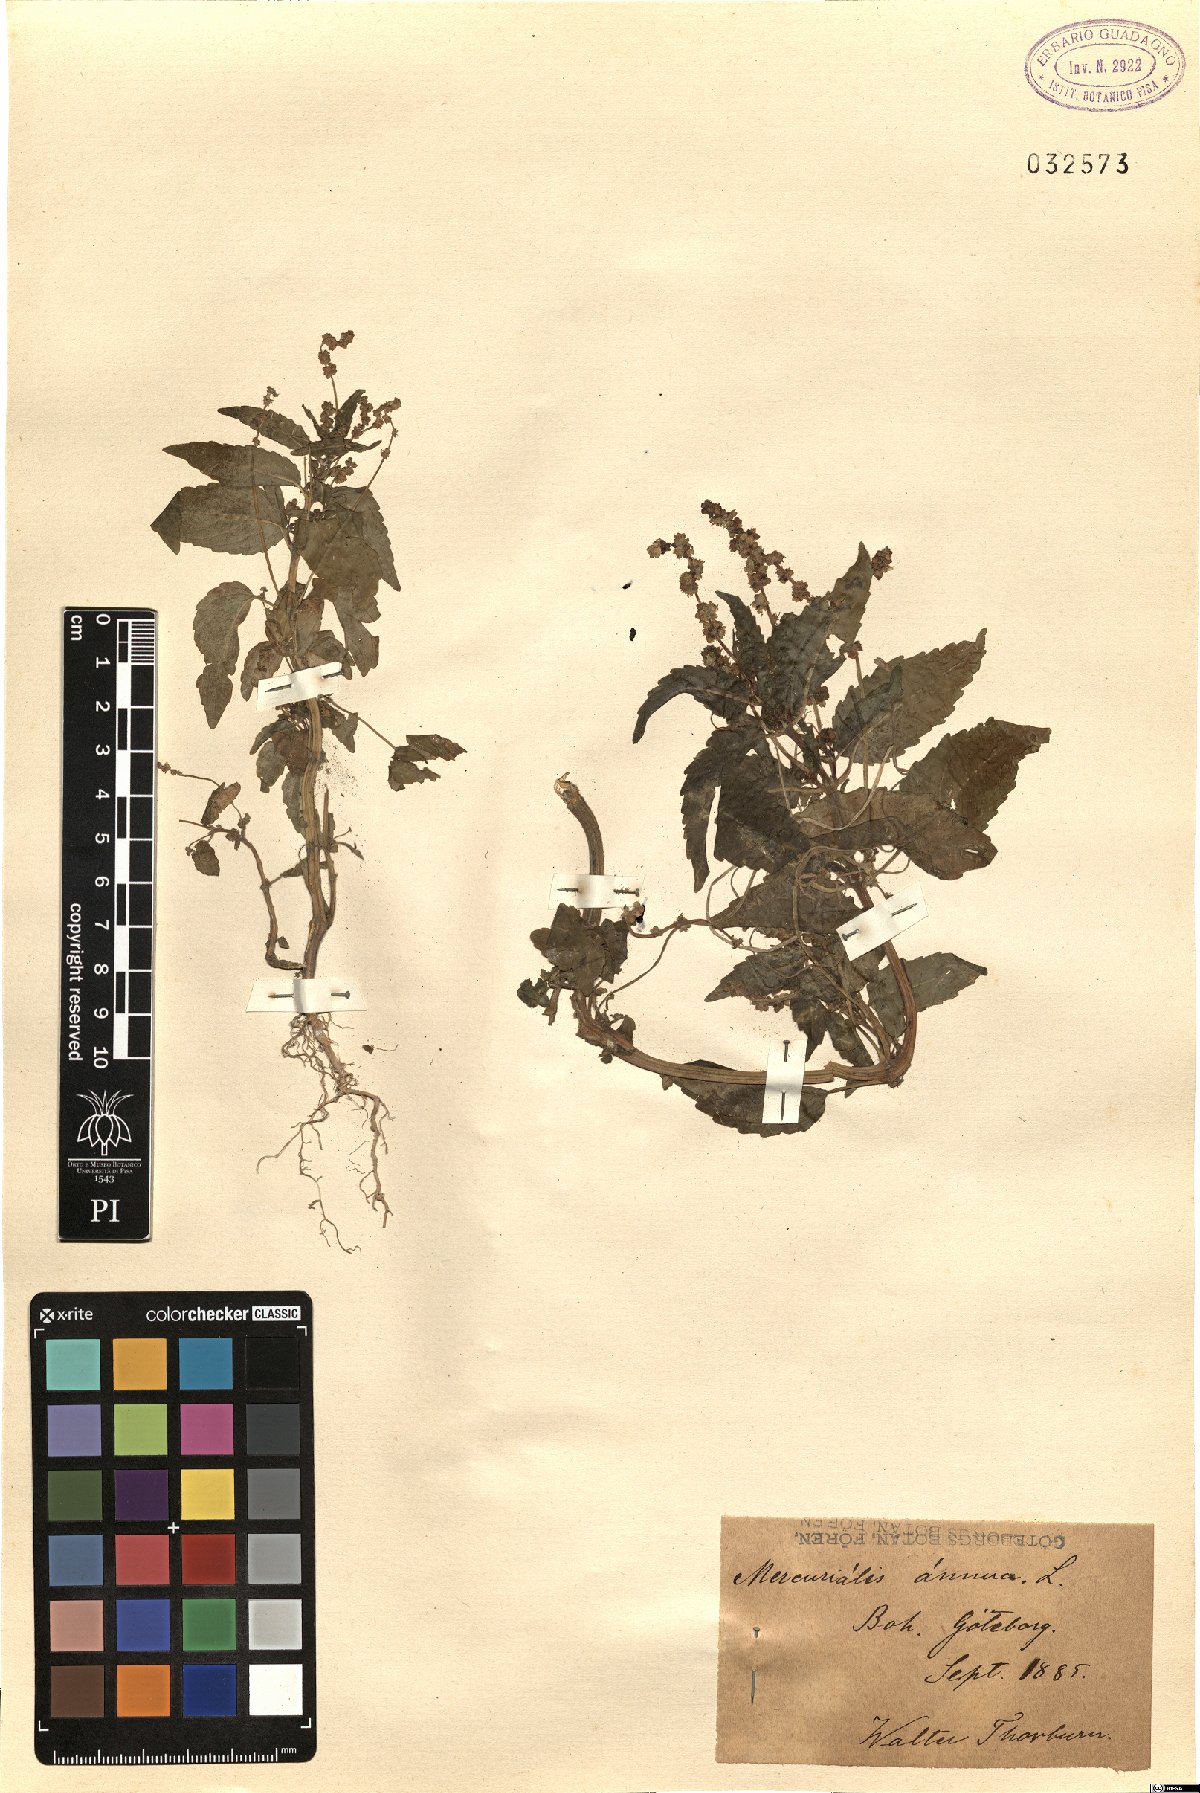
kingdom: Plantae
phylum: Tracheophyta
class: Magnoliopsida
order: Malpighiales
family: Euphorbiaceae
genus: Mercurialis
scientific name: Mercurialis annua
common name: Annual mercury
